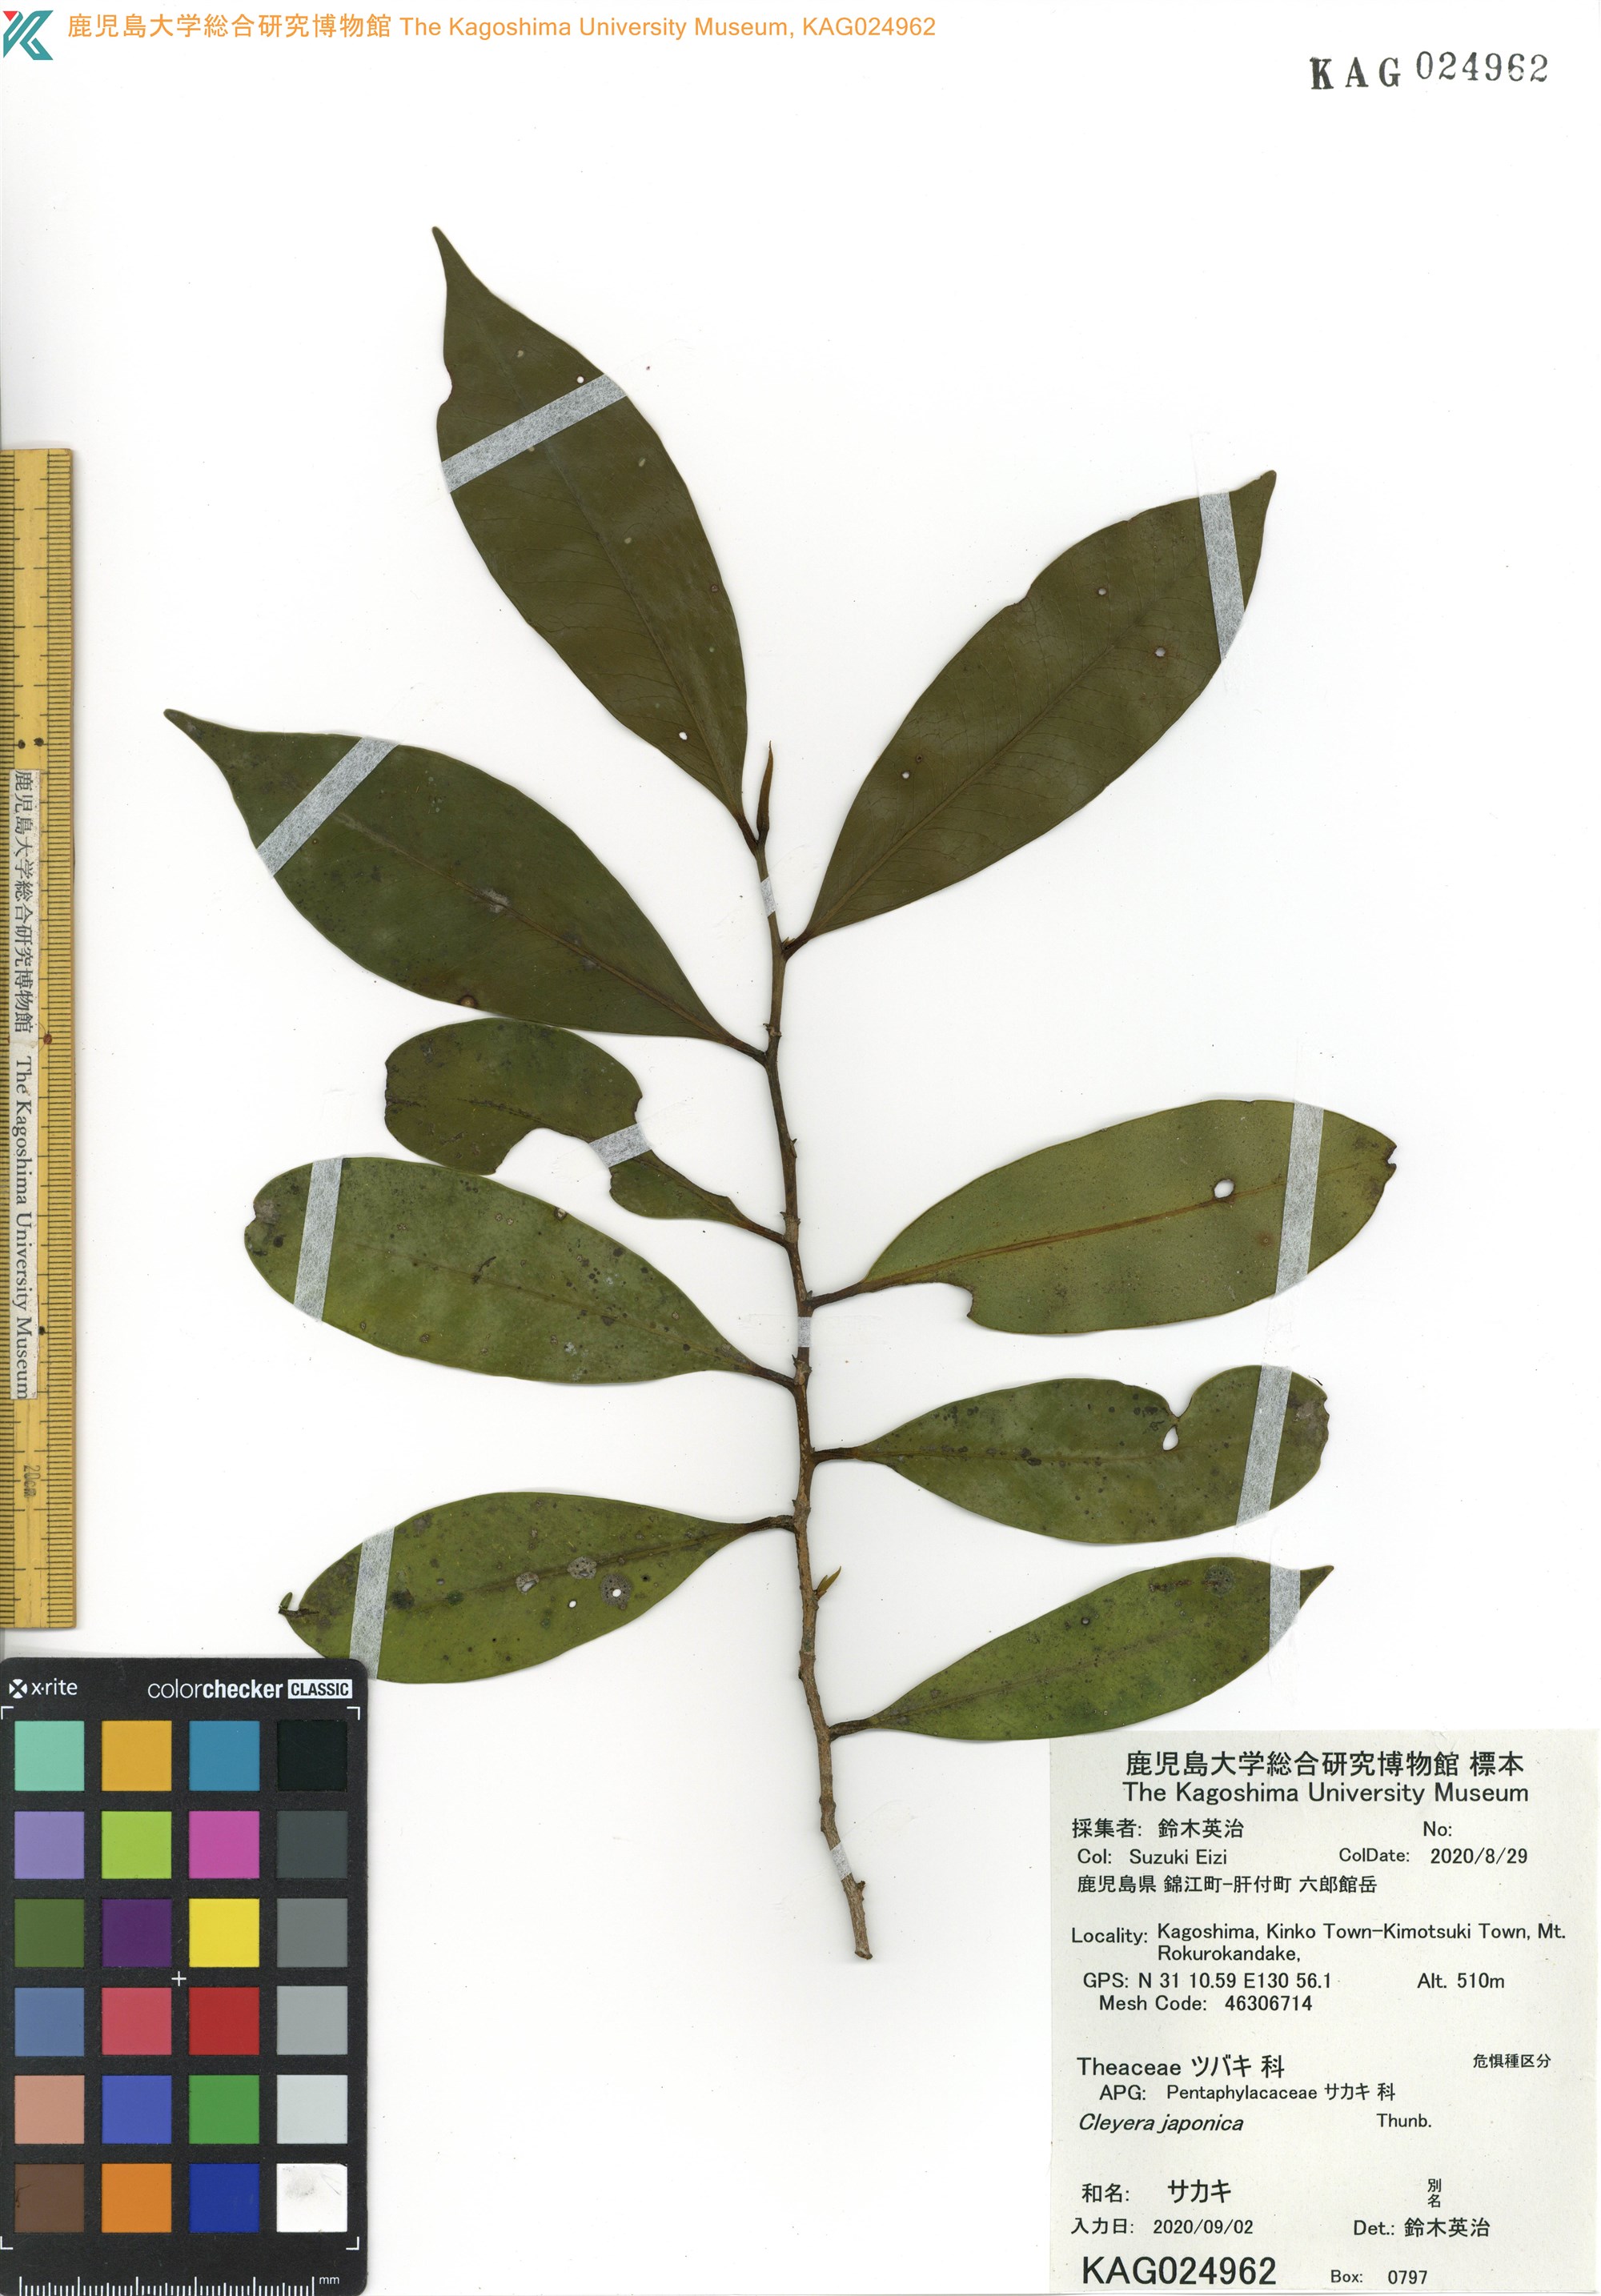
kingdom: Plantae
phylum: Tracheophyta
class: Magnoliopsida
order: Ericales
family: Pentaphylacaceae
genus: Cleyera
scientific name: Cleyera japonica
